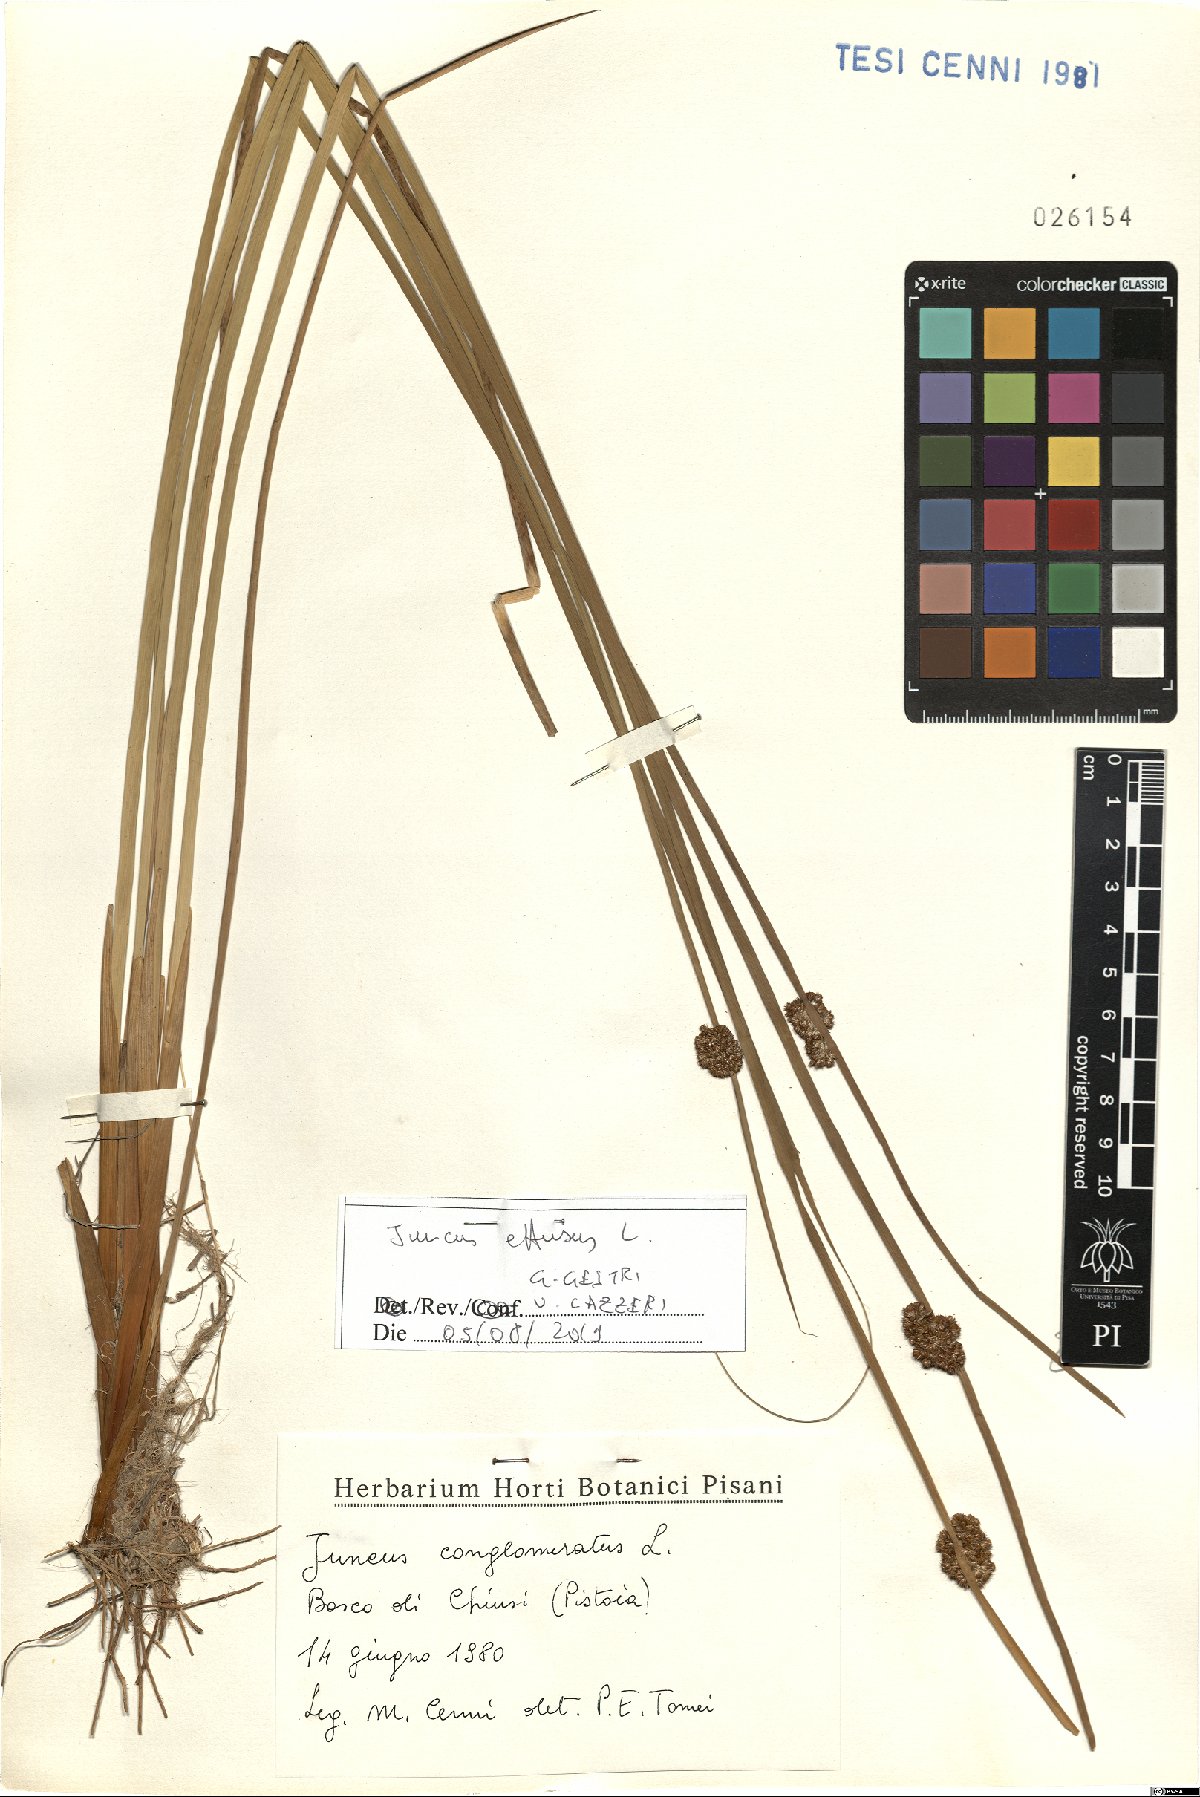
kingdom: Plantae
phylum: Tracheophyta
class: Liliopsida
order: Poales
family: Juncaceae
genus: Juncus
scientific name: Juncus effusus
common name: Soft rush
